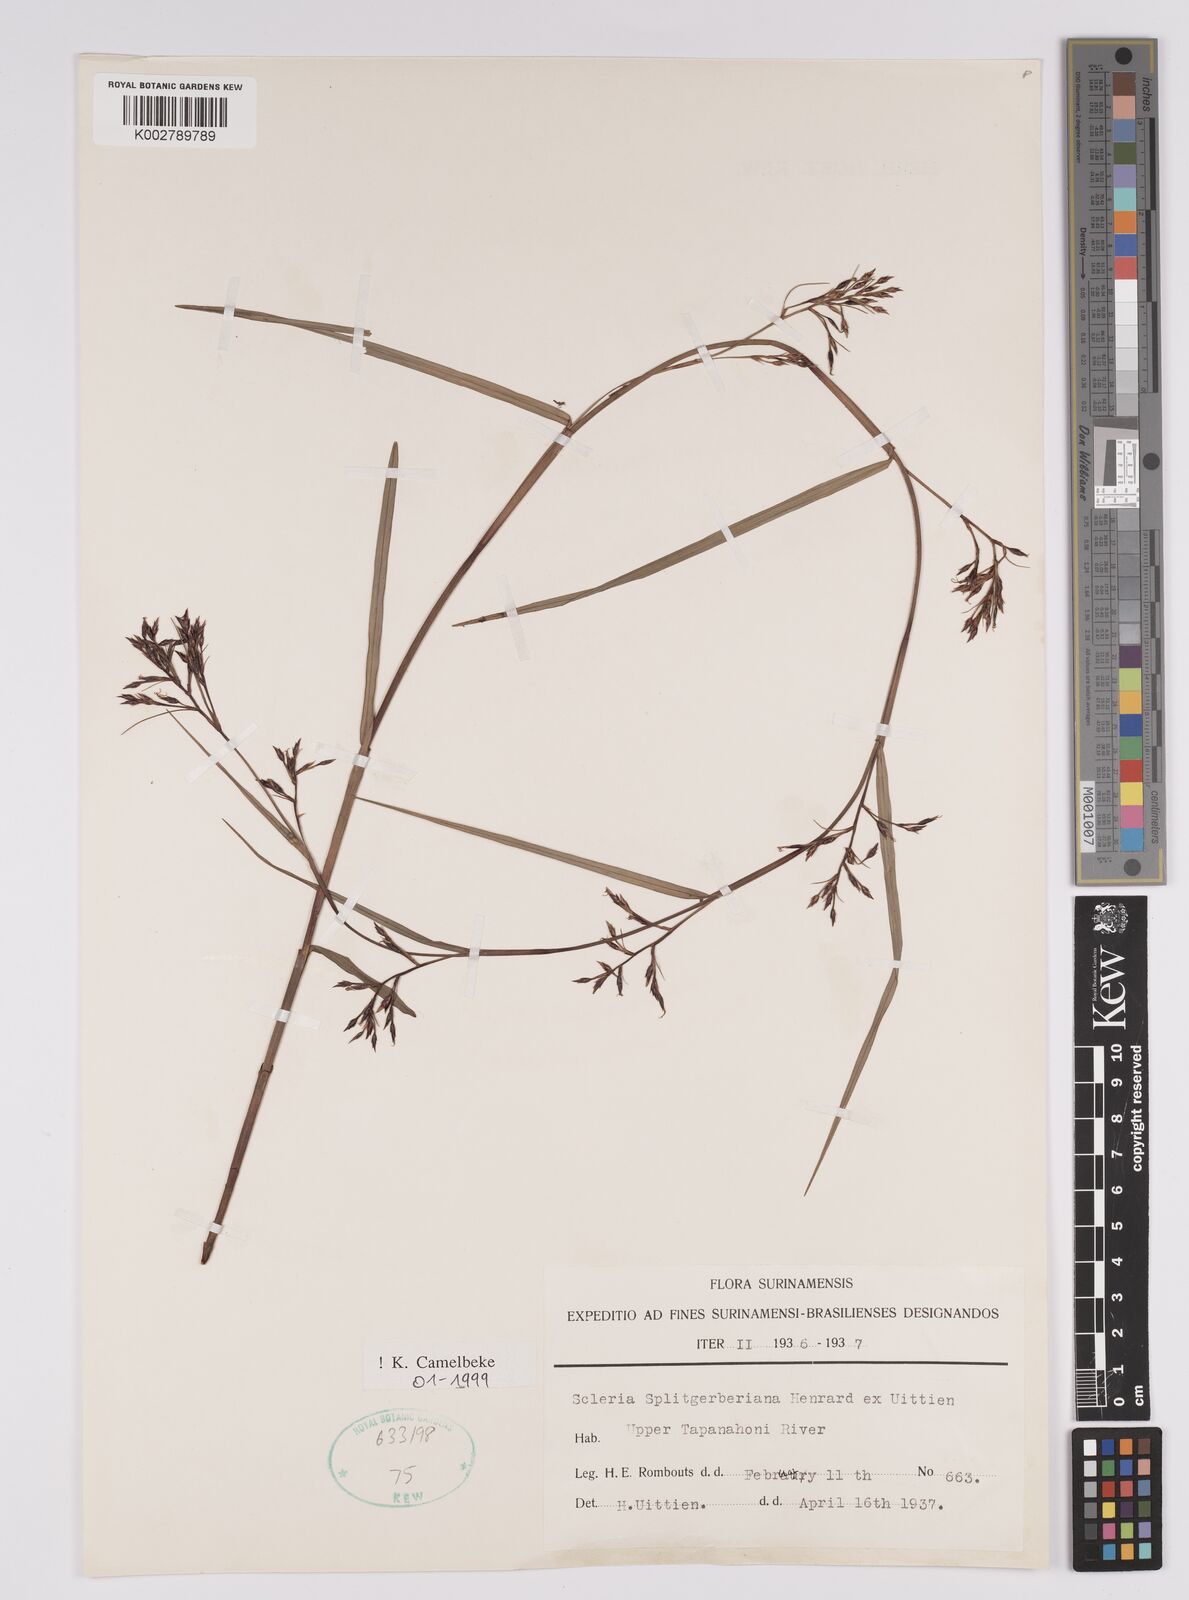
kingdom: Plantae
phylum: Tracheophyta
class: Liliopsida
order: Poales
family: Cyperaceae
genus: Scleria
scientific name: Scleria splitgerberiana
